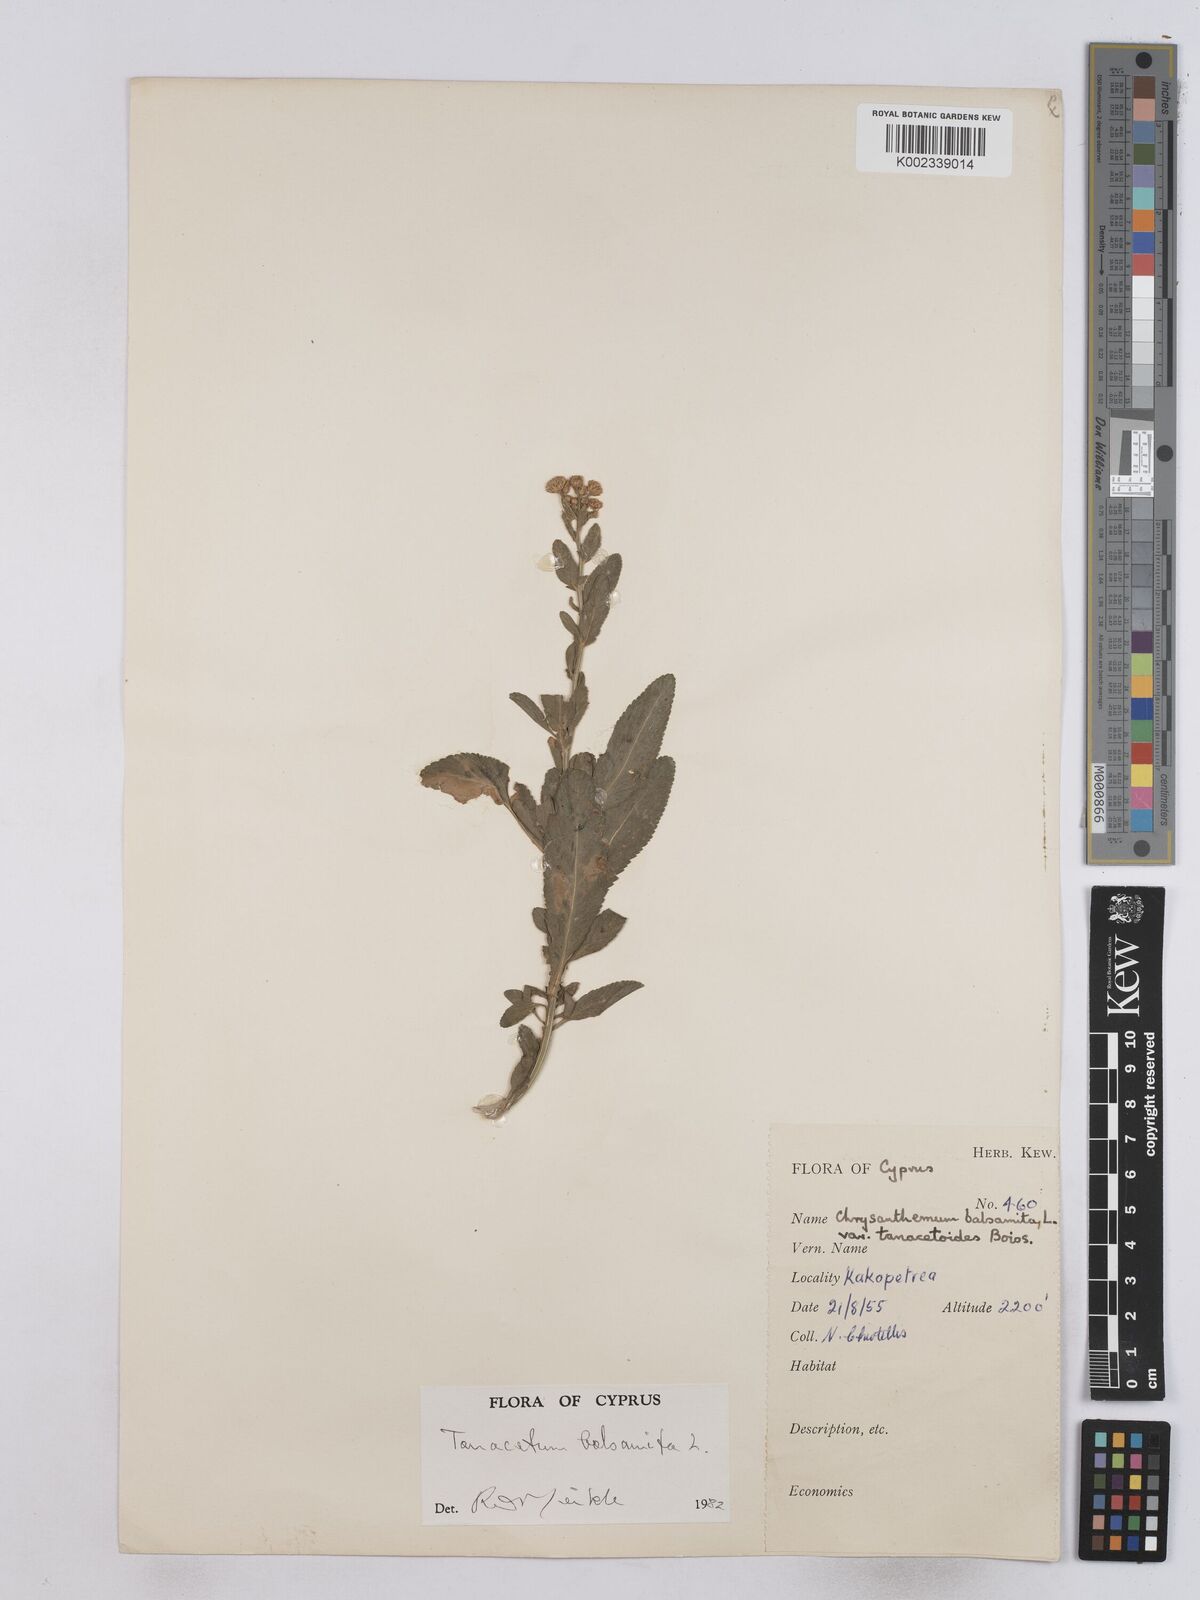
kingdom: Plantae
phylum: Tracheophyta
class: Magnoliopsida
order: Asterales
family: Asteraceae
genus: Tanacetum
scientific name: Tanacetum balsamita
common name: Costmary
